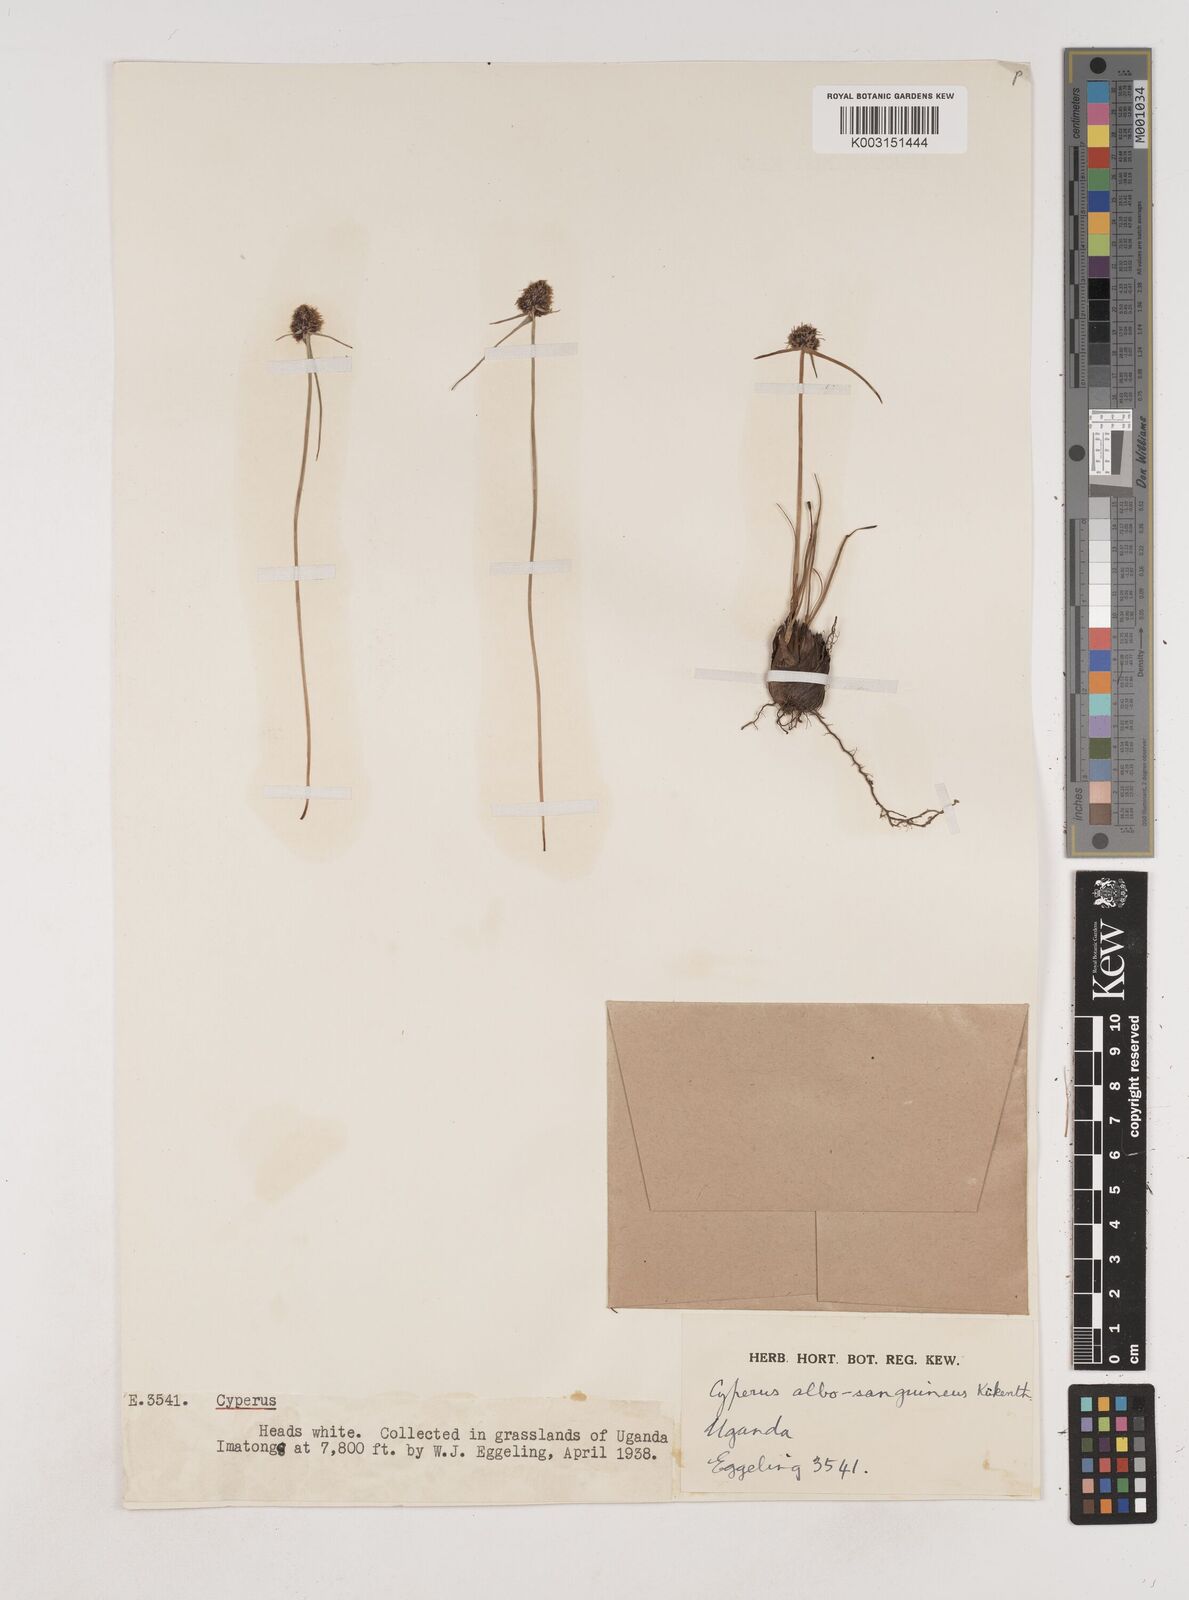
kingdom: Plantae
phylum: Tracheophyta
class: Liliopsida
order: Poales
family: Cyperaceae
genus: Cyperus
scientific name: Cyperus albosanguineus
